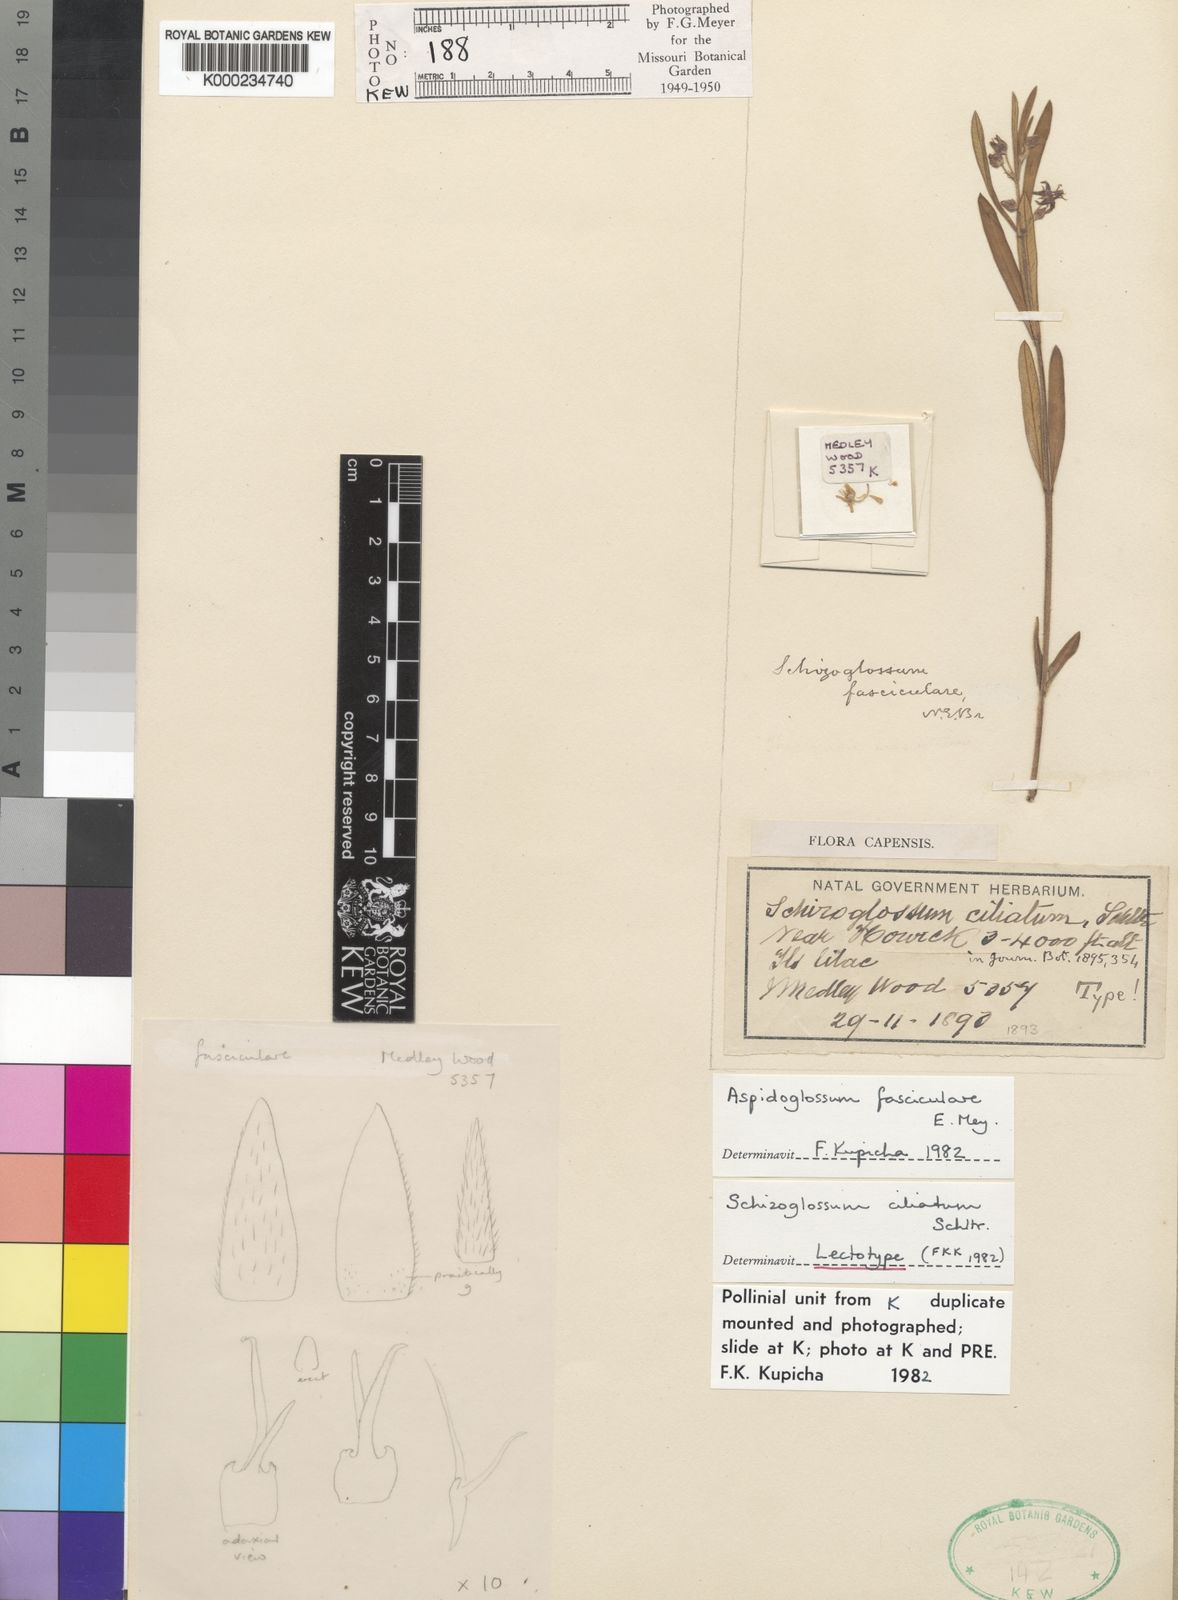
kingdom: Plantae
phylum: Tracheophyta
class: Magnoliopsida
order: Gentianales
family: Apocynaceae
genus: Aspidoglossum
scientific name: Aspidoglossum fasciculare
